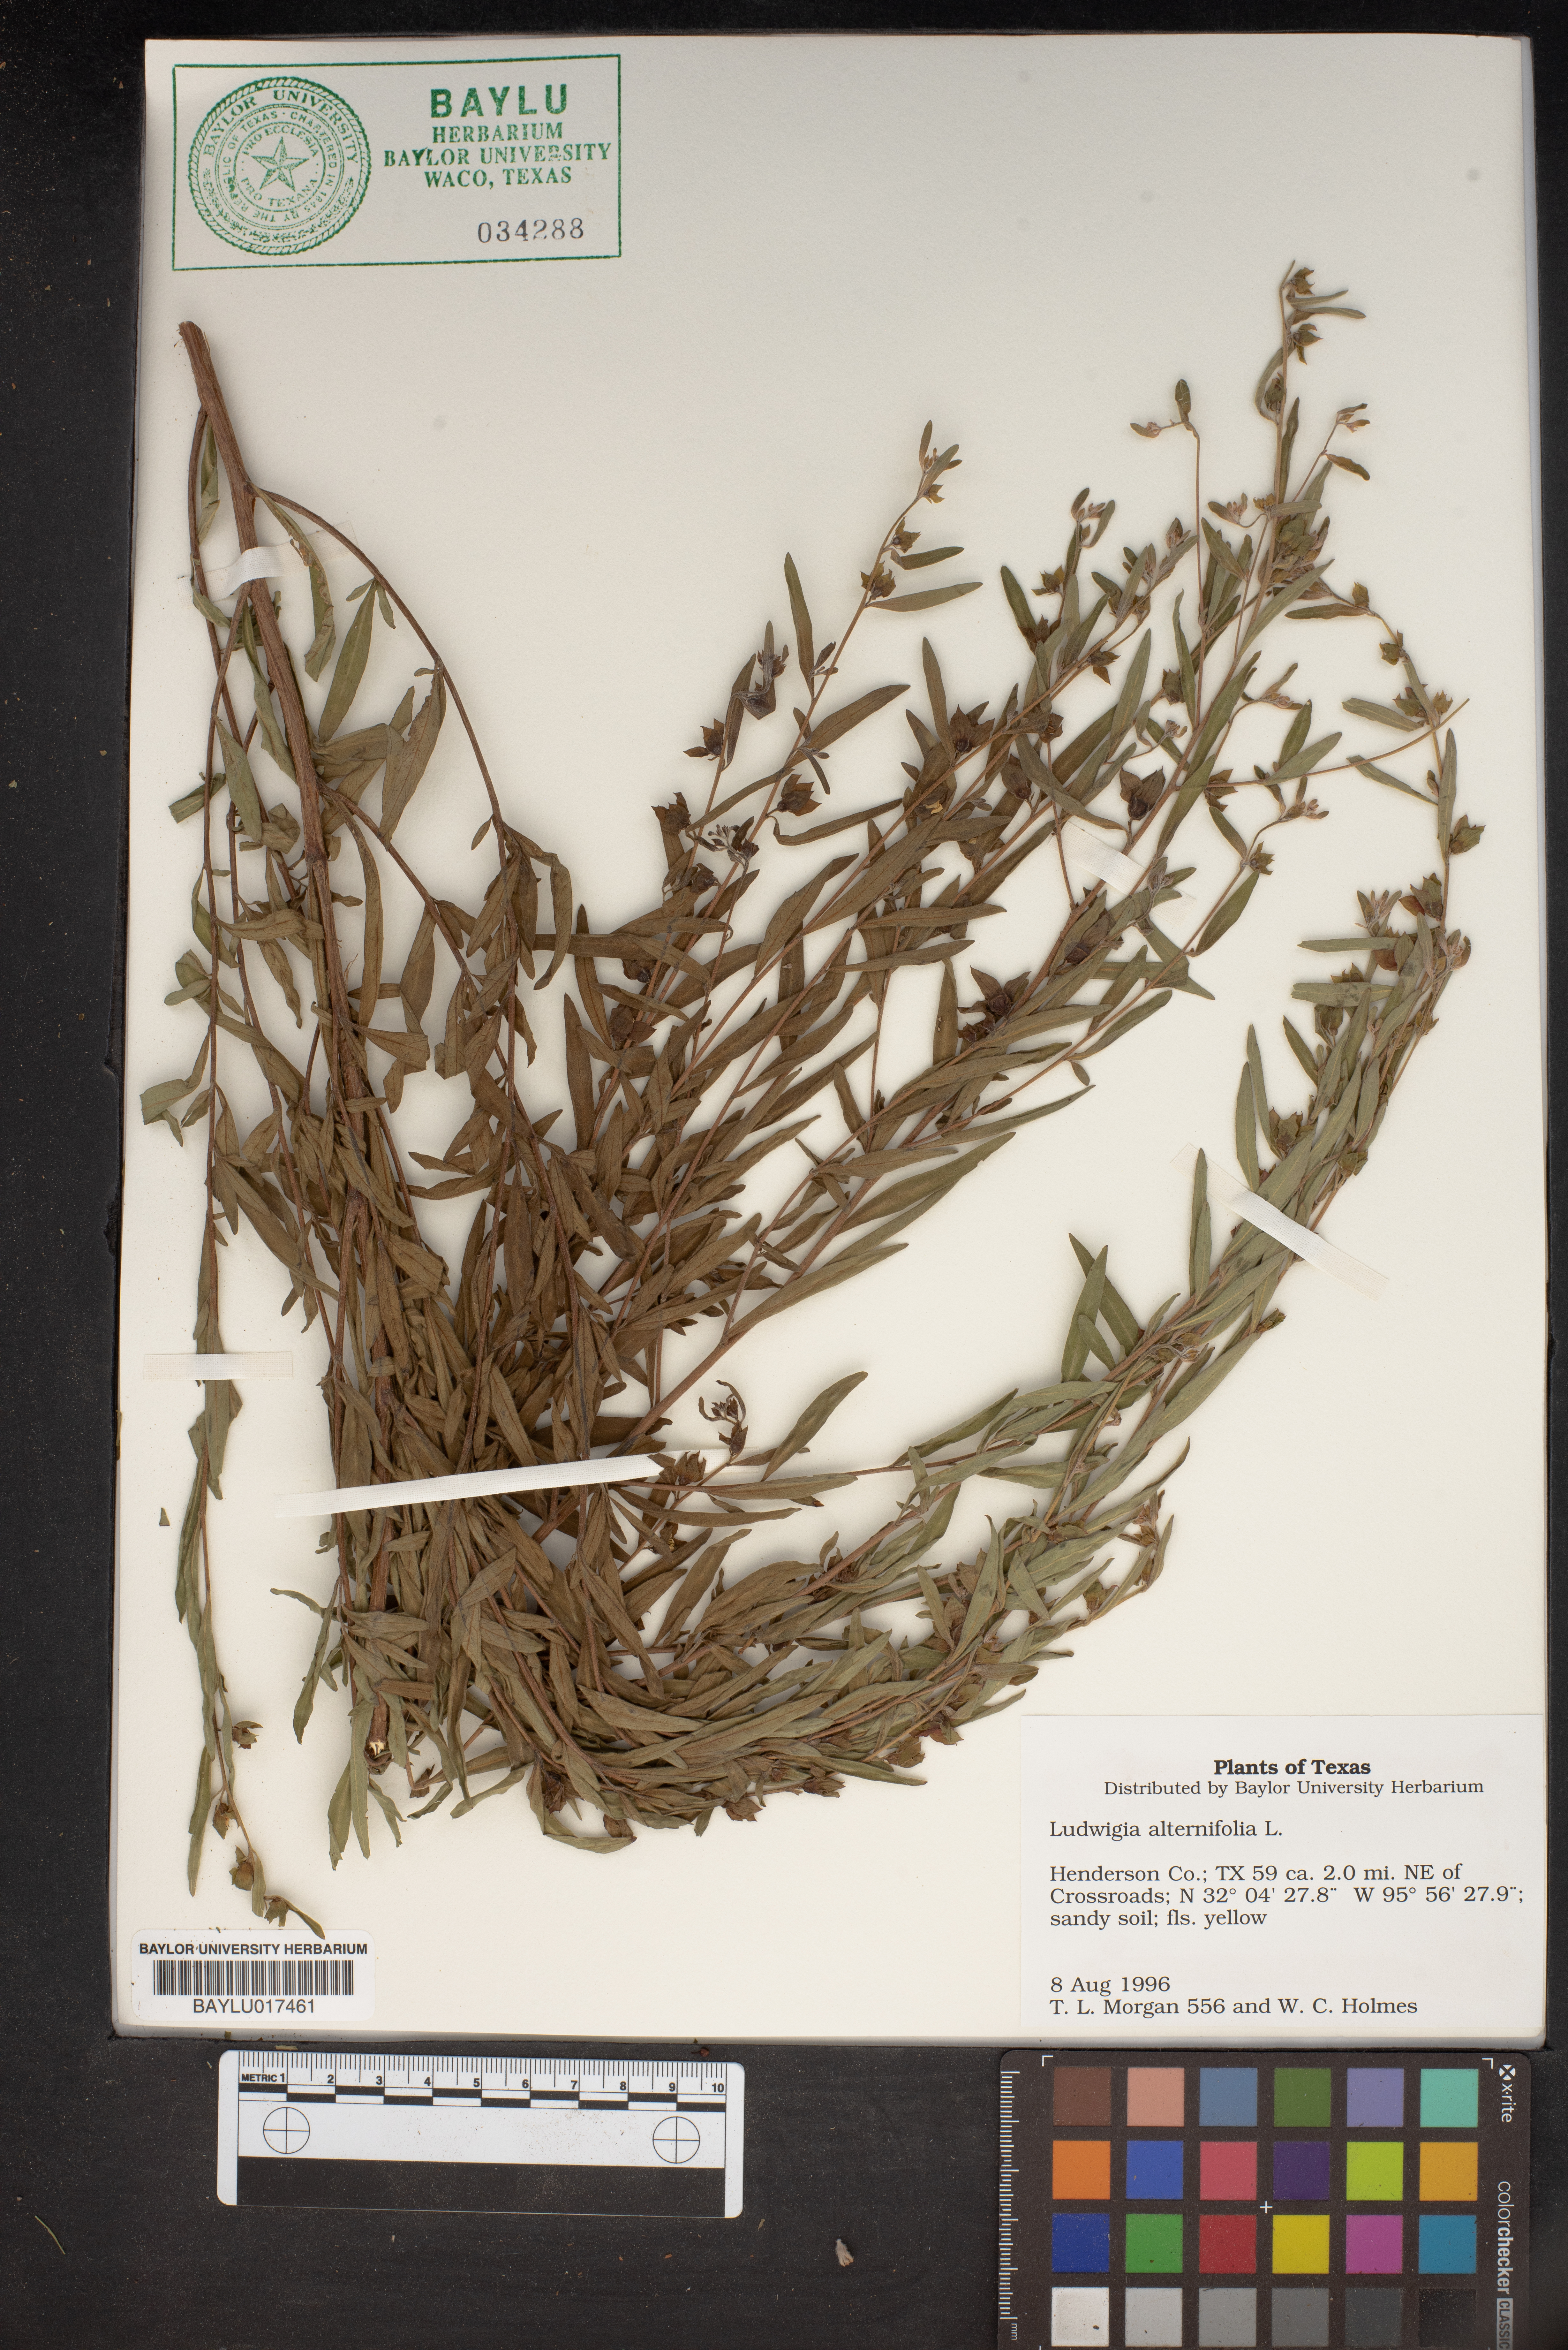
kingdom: Plantae
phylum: Tracheophyta
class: Magnoliopsida
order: Myrtales
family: Onagraceae
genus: Ludwigia
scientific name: Ludwigia alternifolia
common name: Rattlebox
